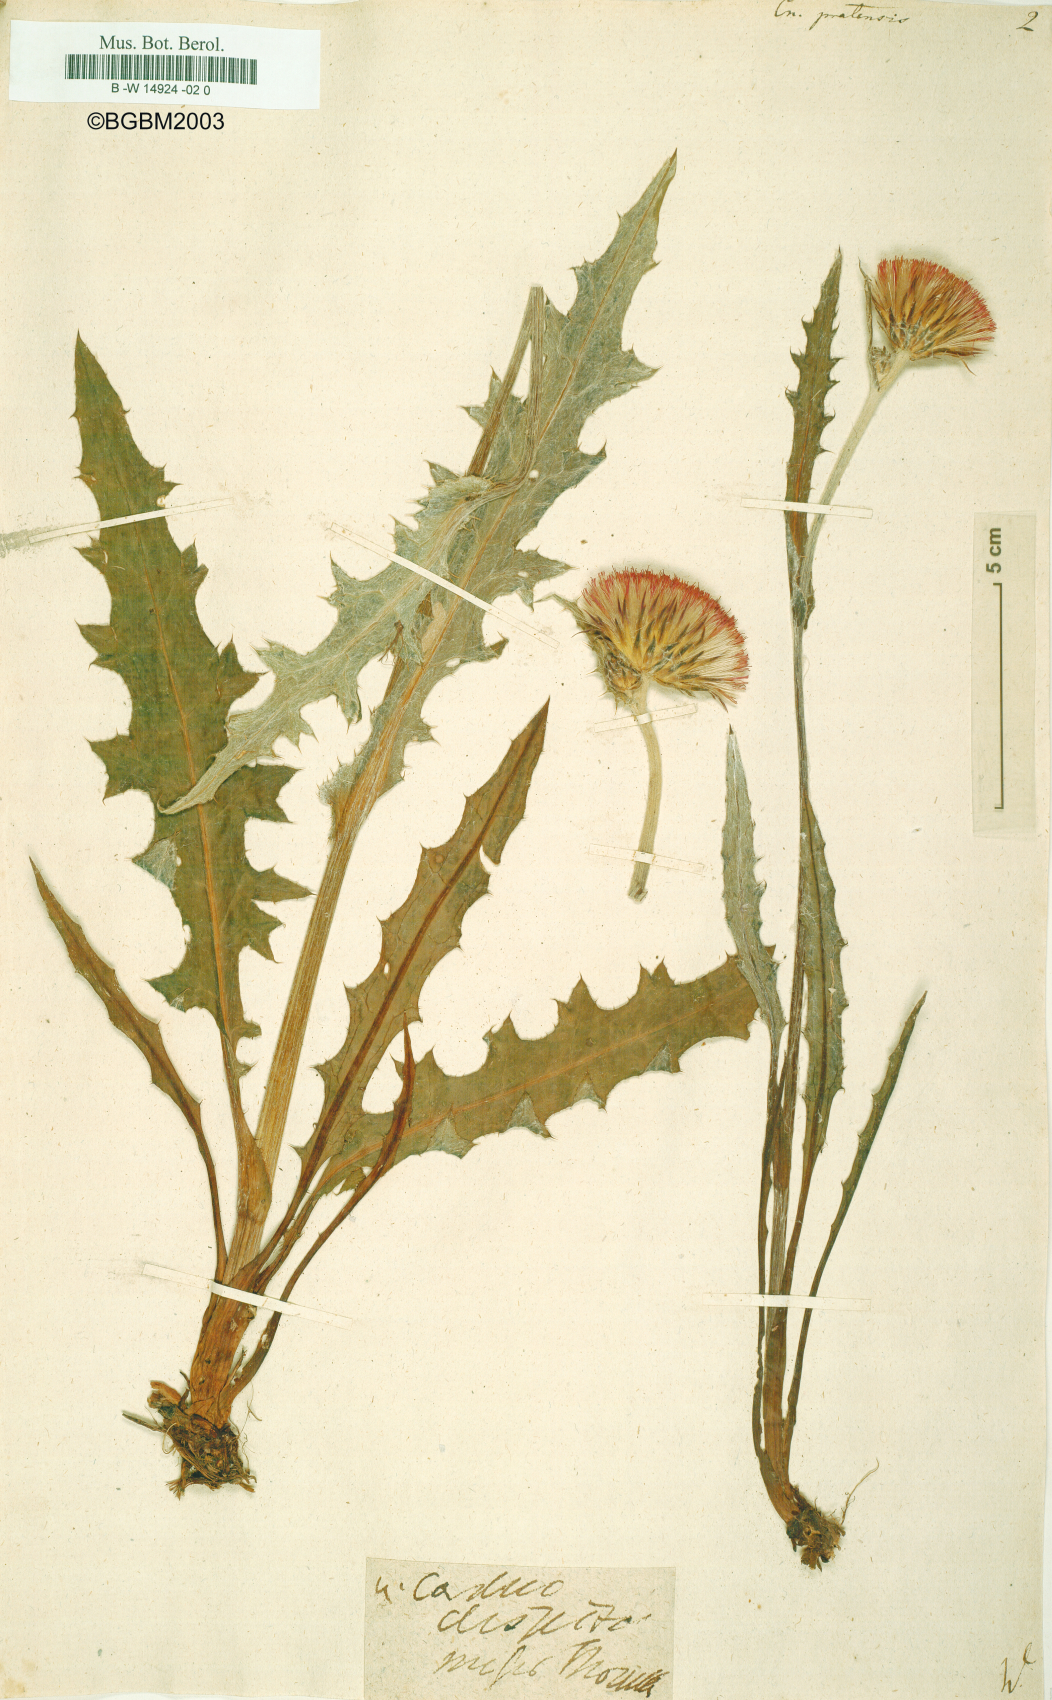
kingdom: Plantae
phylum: Tracheophyta
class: Magnoliopsida
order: Asterales
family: Asteraceae
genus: Cirsium
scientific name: Cirsium
